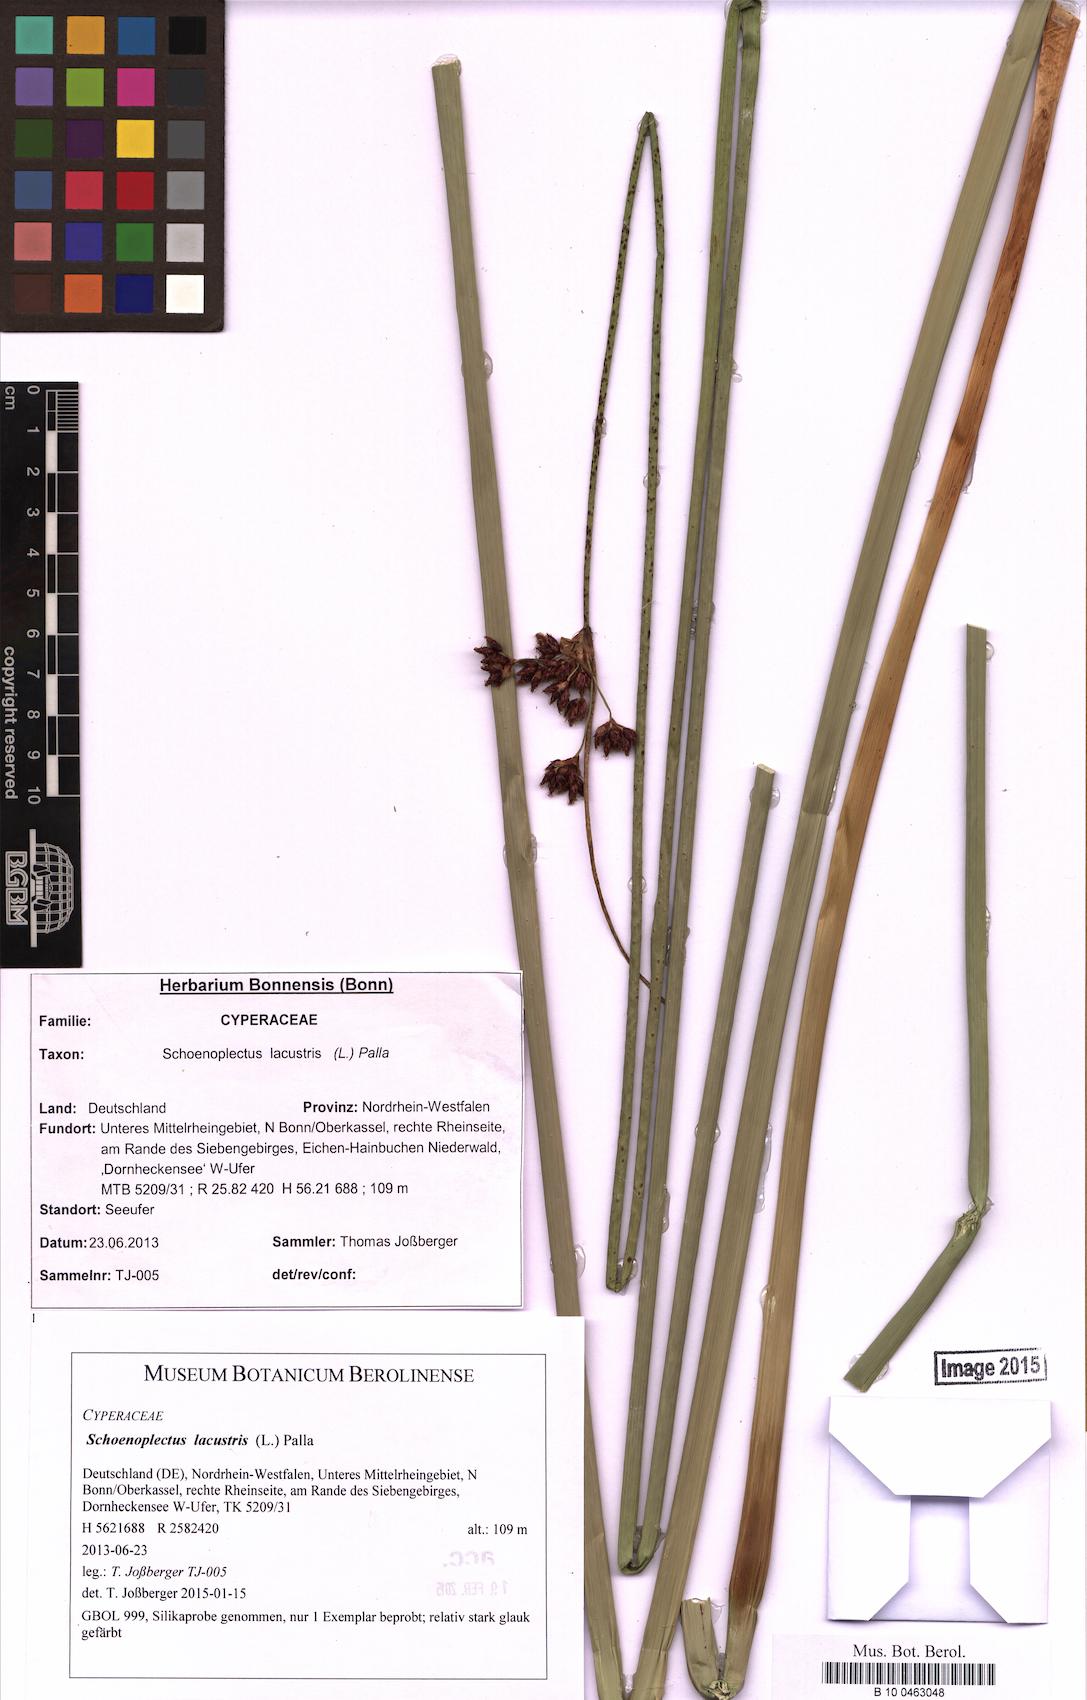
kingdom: Plantae
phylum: Tracheophyta
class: Liliopsida
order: Poales
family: Cyperaceae
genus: Schoenoplectus
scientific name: Schoenoplectus lacustris
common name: Common club-rush
